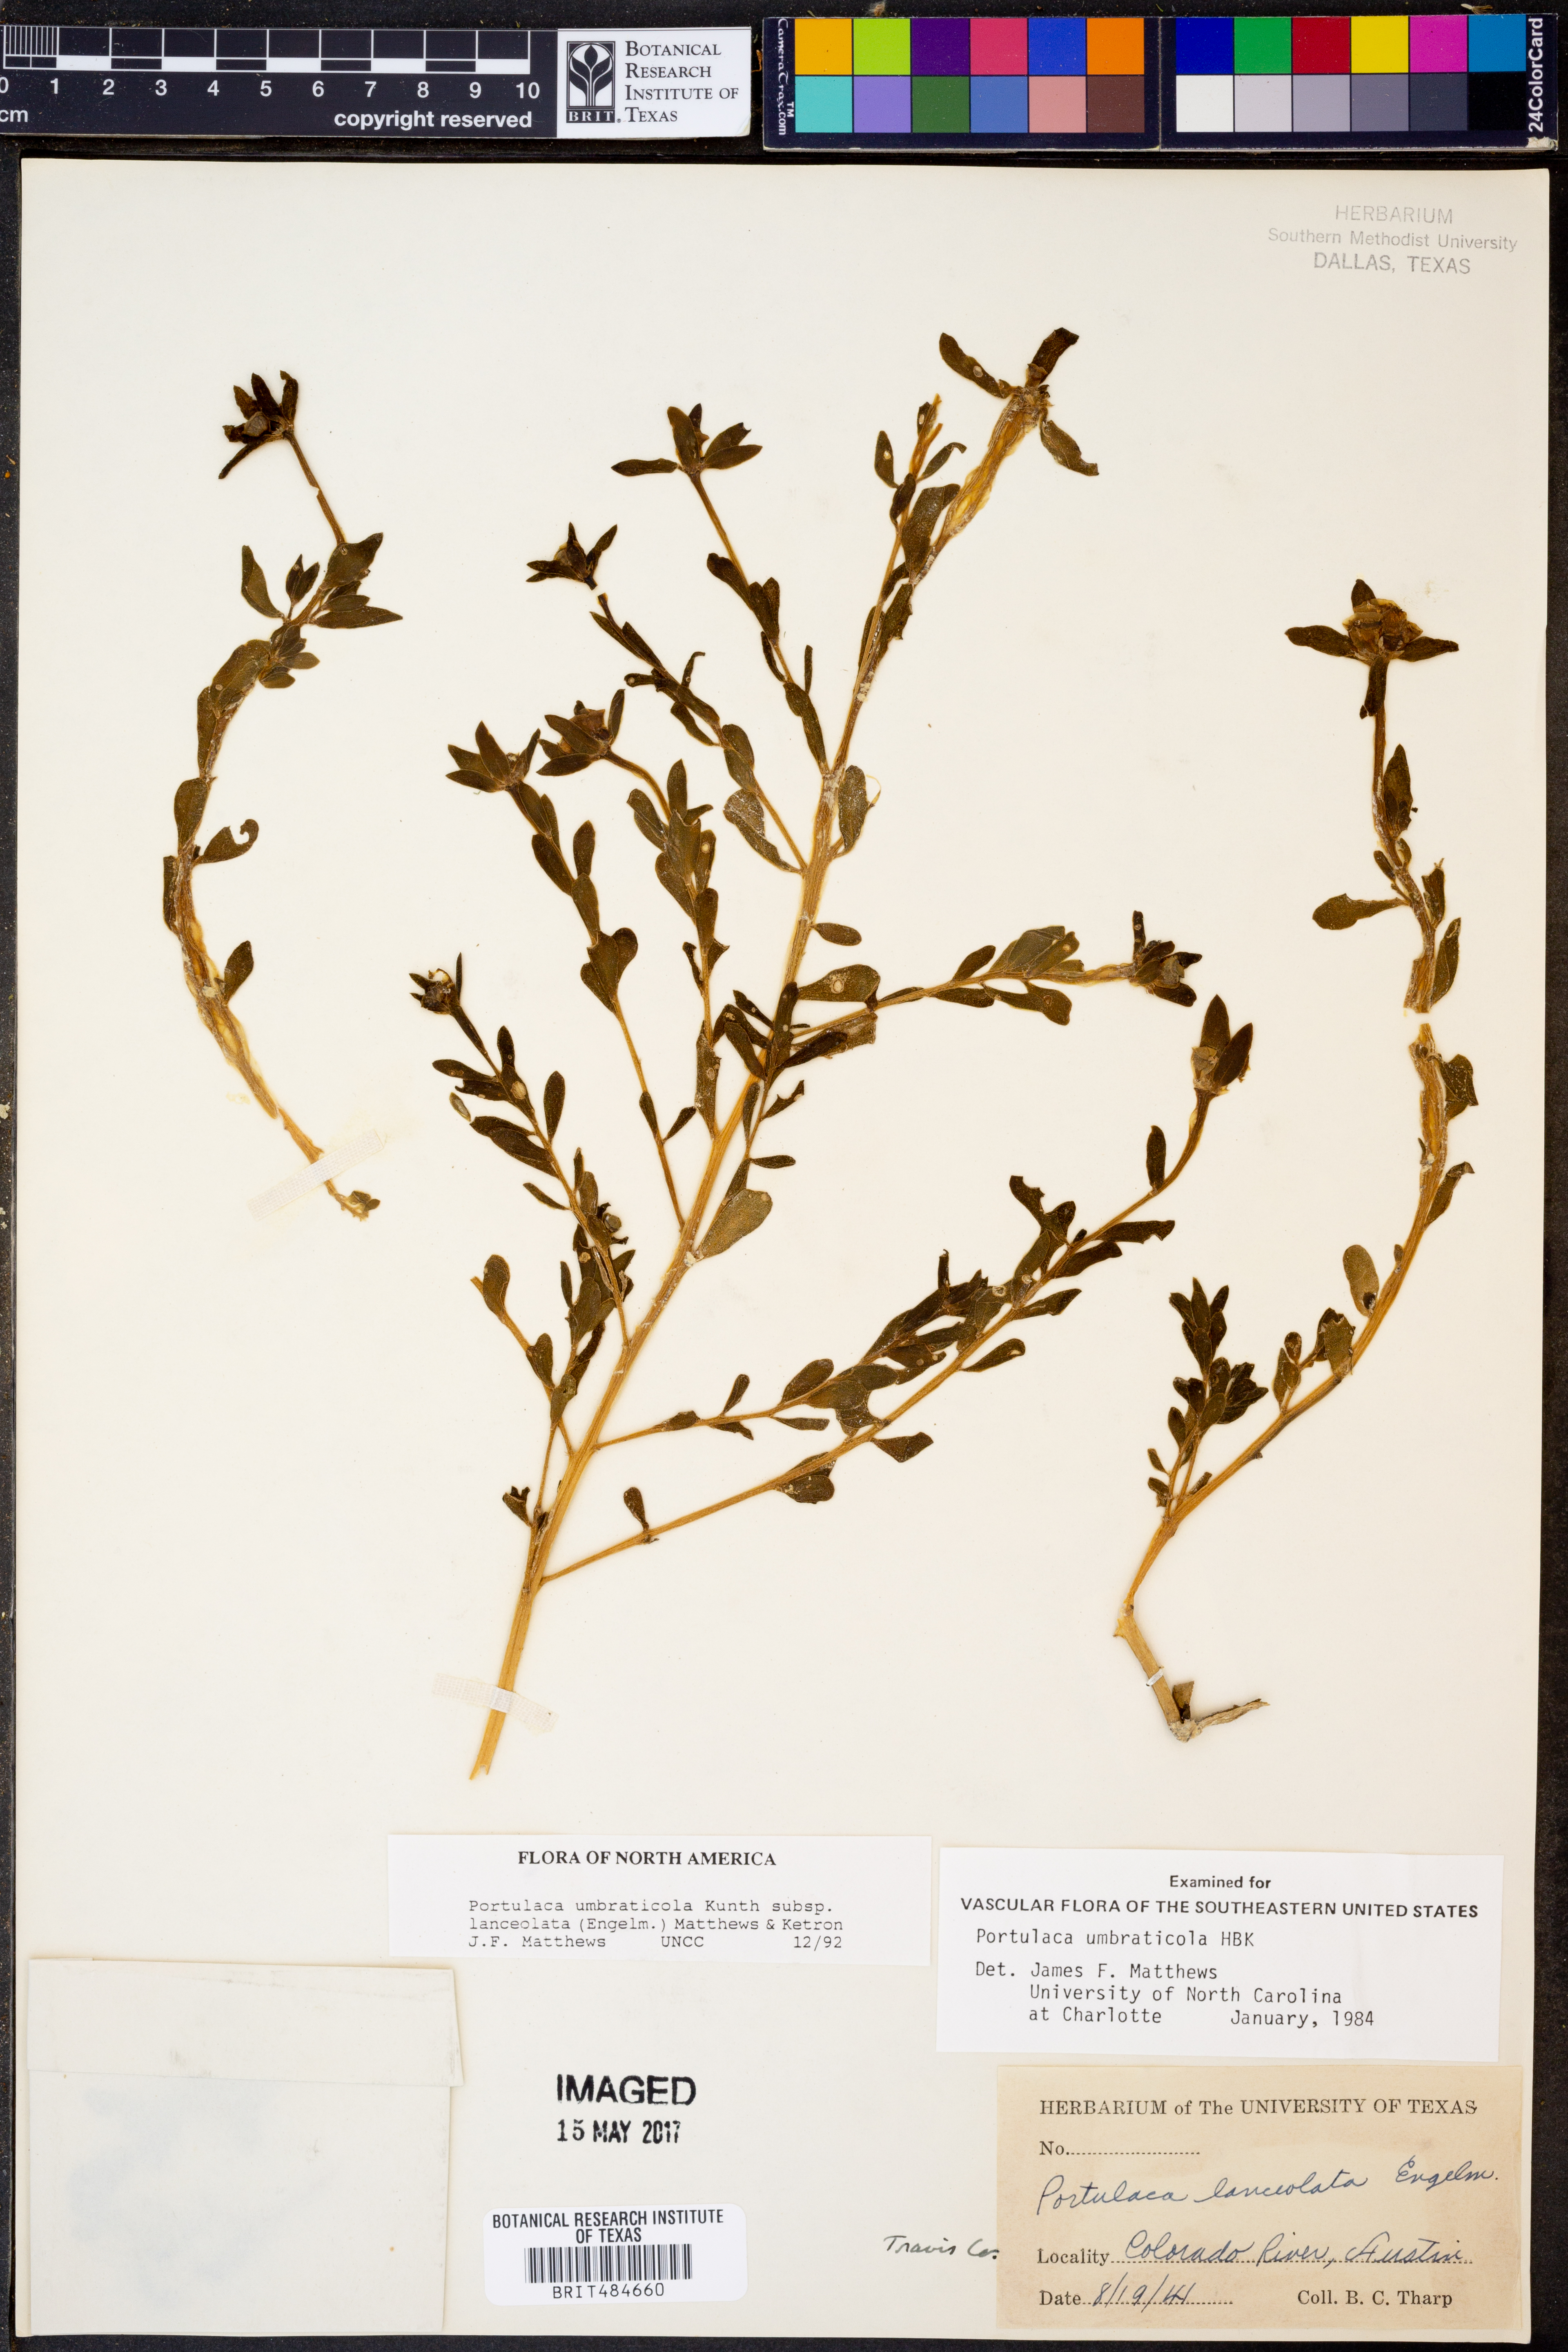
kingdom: Plantae
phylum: Tracheophyta
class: Magnoliopsida
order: Caryophyllales
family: Portulacaceae
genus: Portulaca
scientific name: Portulaca umbraticola
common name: Wingpod purslane
